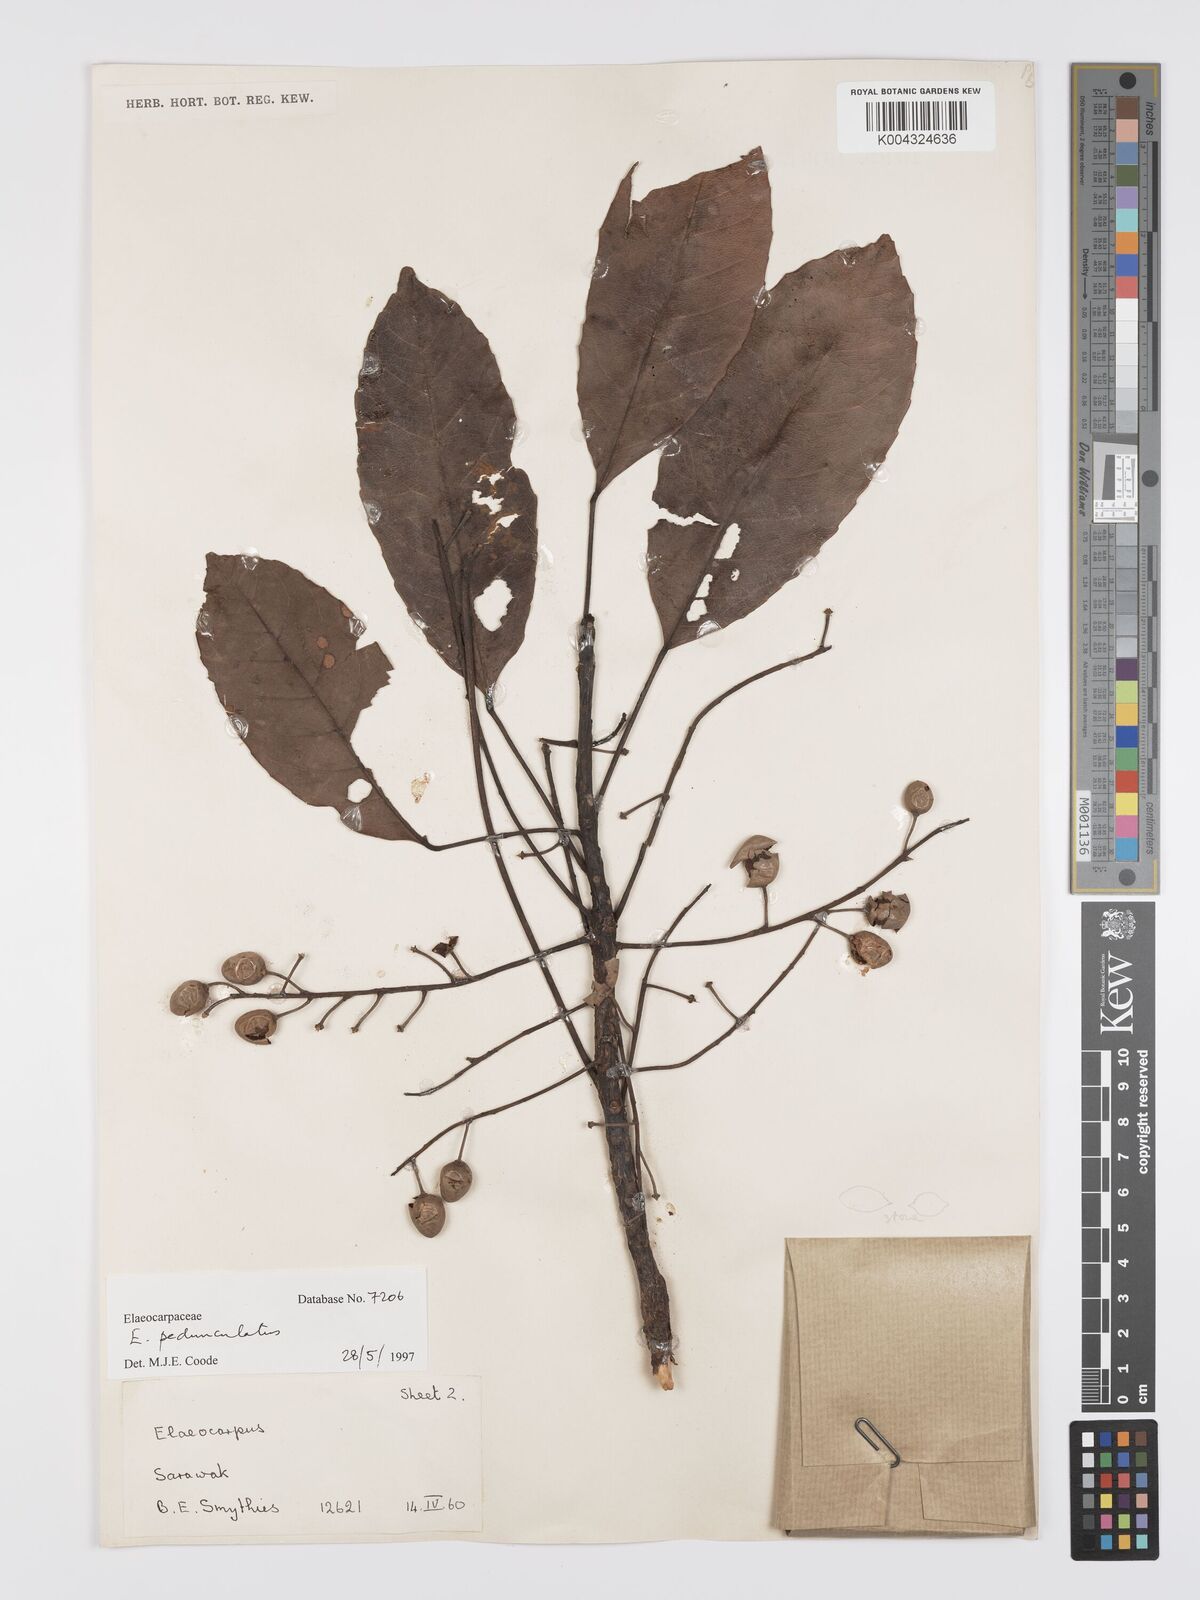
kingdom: Plantae
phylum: Tracheophyta
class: Magnoliopsida
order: Oxalidales
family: Elaeocarpaceae
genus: Elaeocarpus
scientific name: Elaeocarpus pedunculatus
